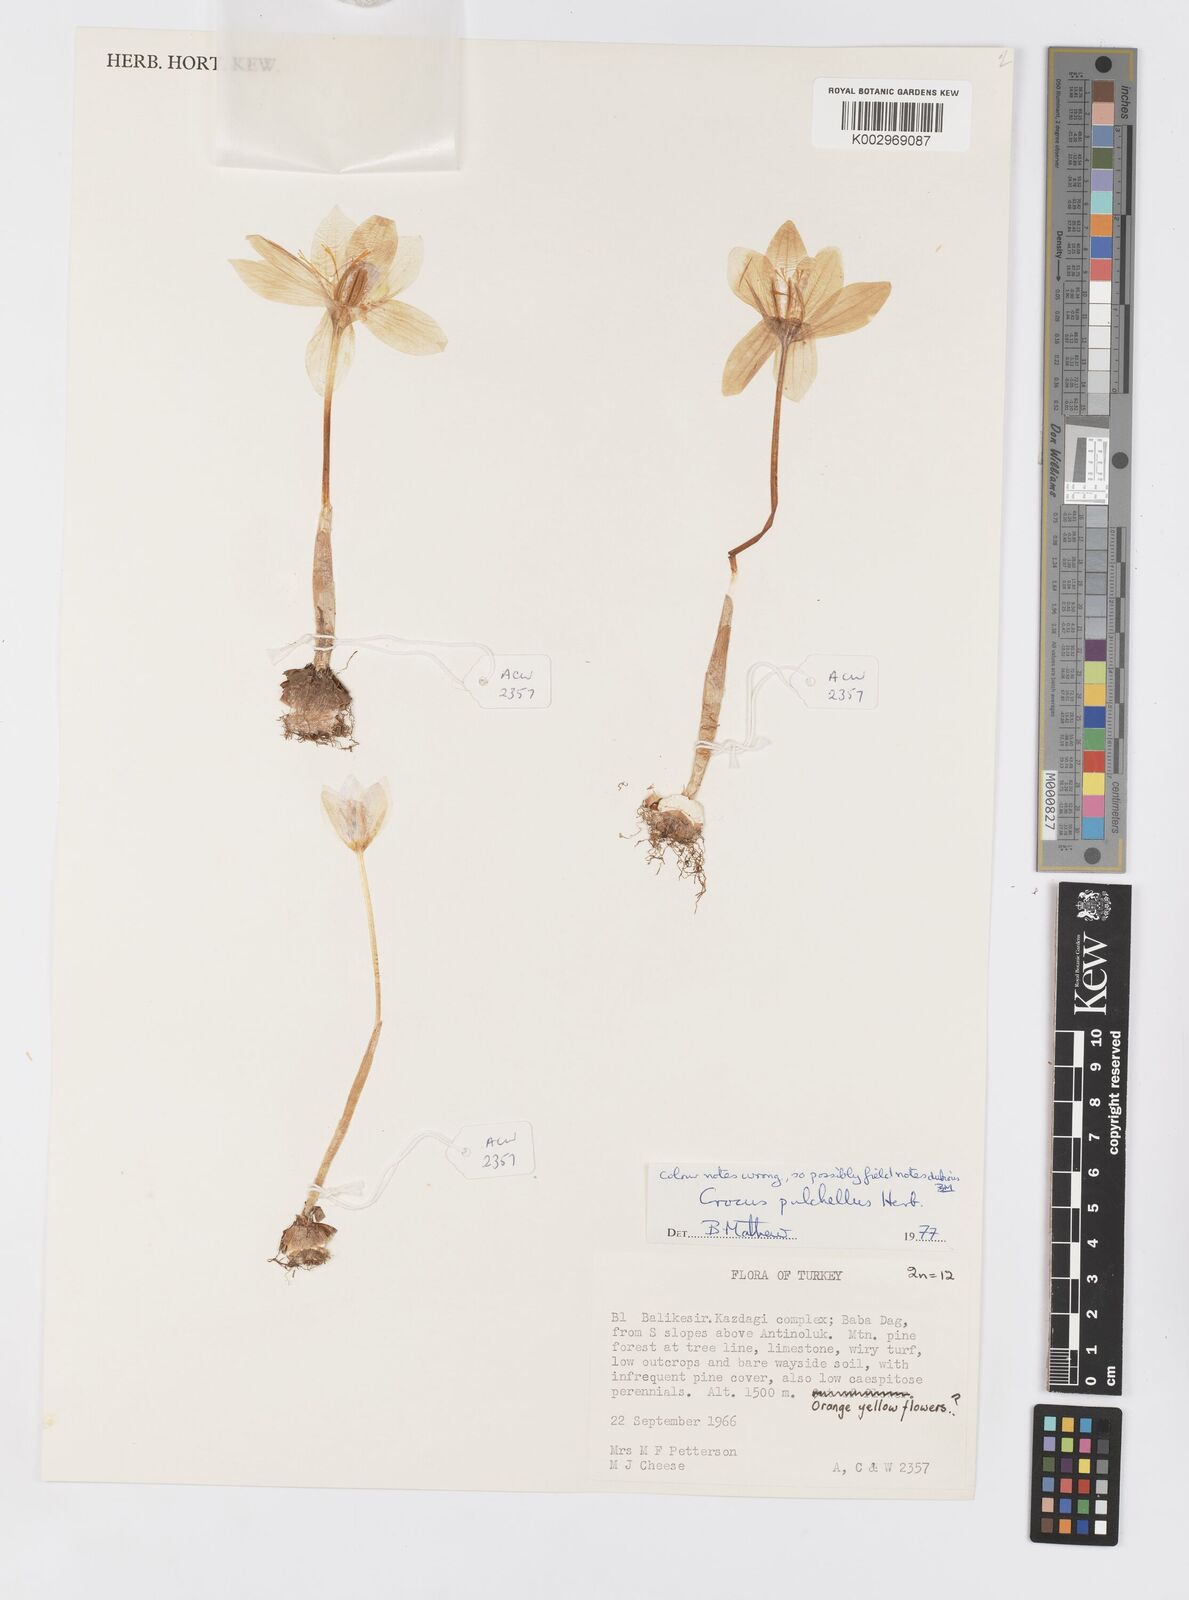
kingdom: Plantae
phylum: Tracheophyta
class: Liliopsida
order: Asparagales
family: Iridaceae
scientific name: Iridaceae
